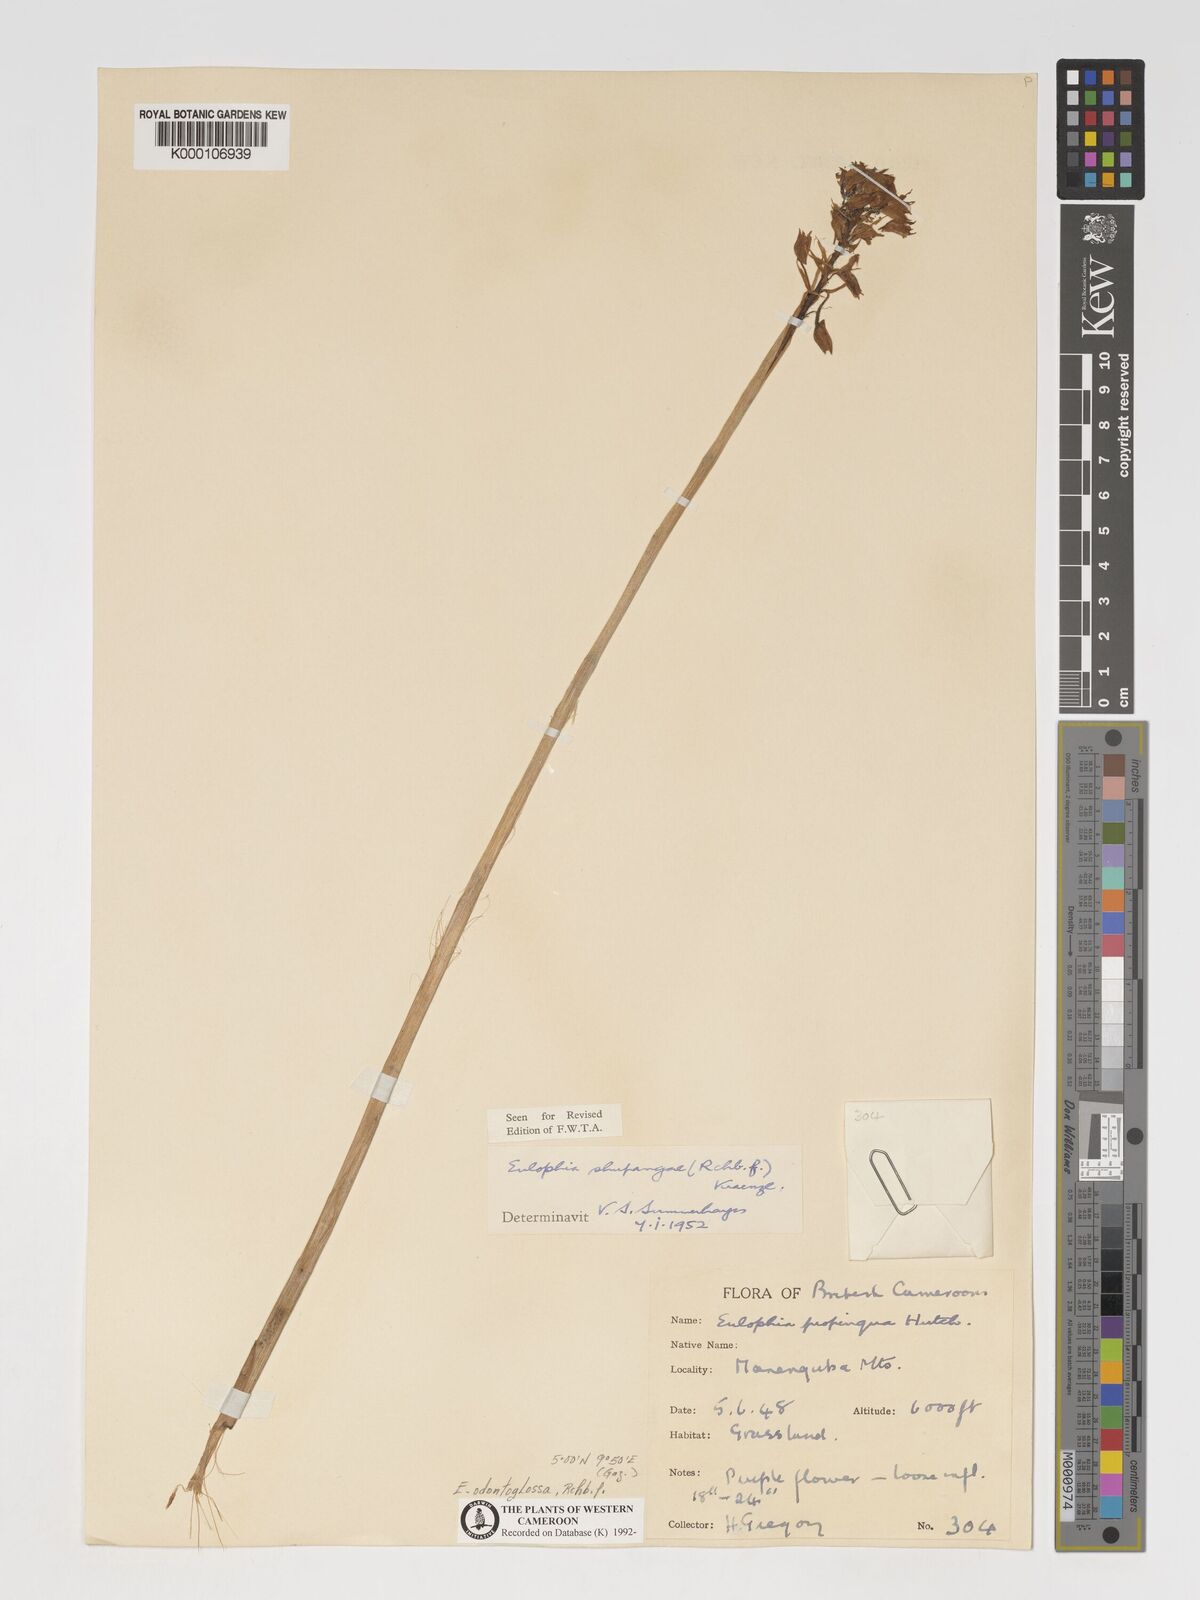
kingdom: Plantae
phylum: Tracheophyta
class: Liliopsida
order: Asparagales
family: Orchidaceae
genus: Eulophia
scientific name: Eulophia odontoglossa
